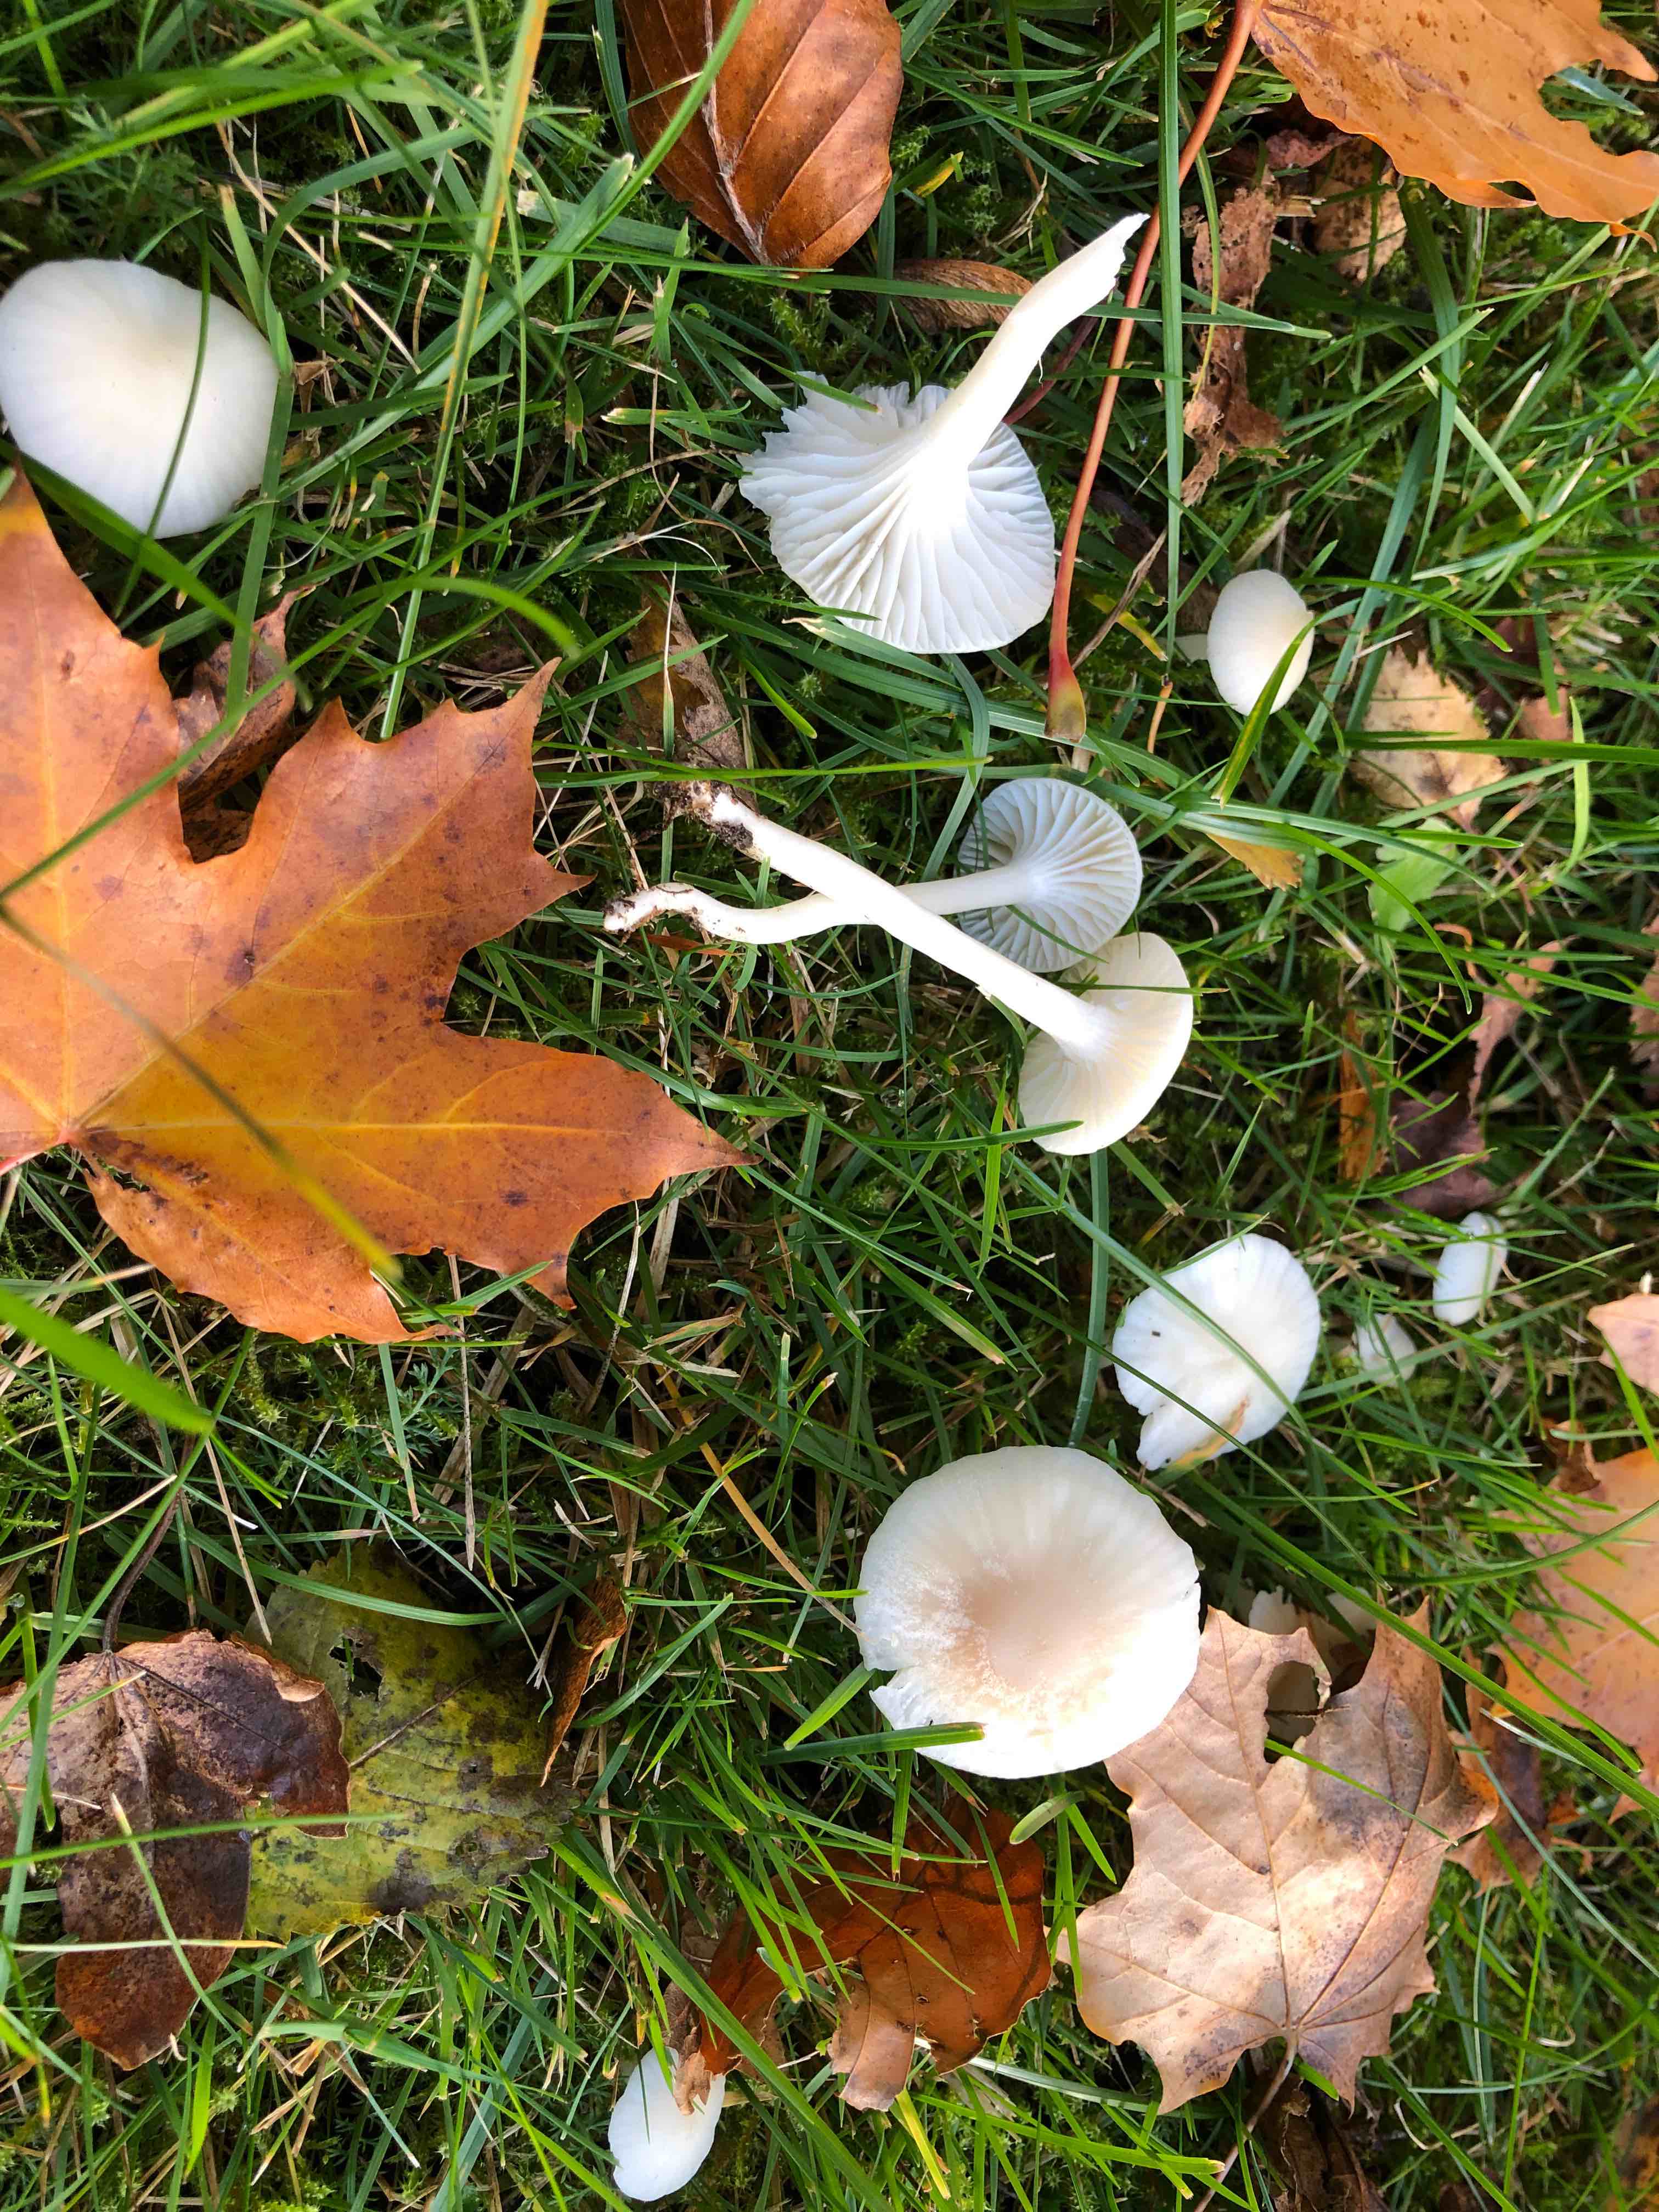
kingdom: Fungi
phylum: Basidiomycota
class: Agaricomycetes
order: Agaricales
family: Hygrophoraceae
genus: Cuphophyllus
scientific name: Cuphophyllus virgineus
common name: snehvid vokshat
